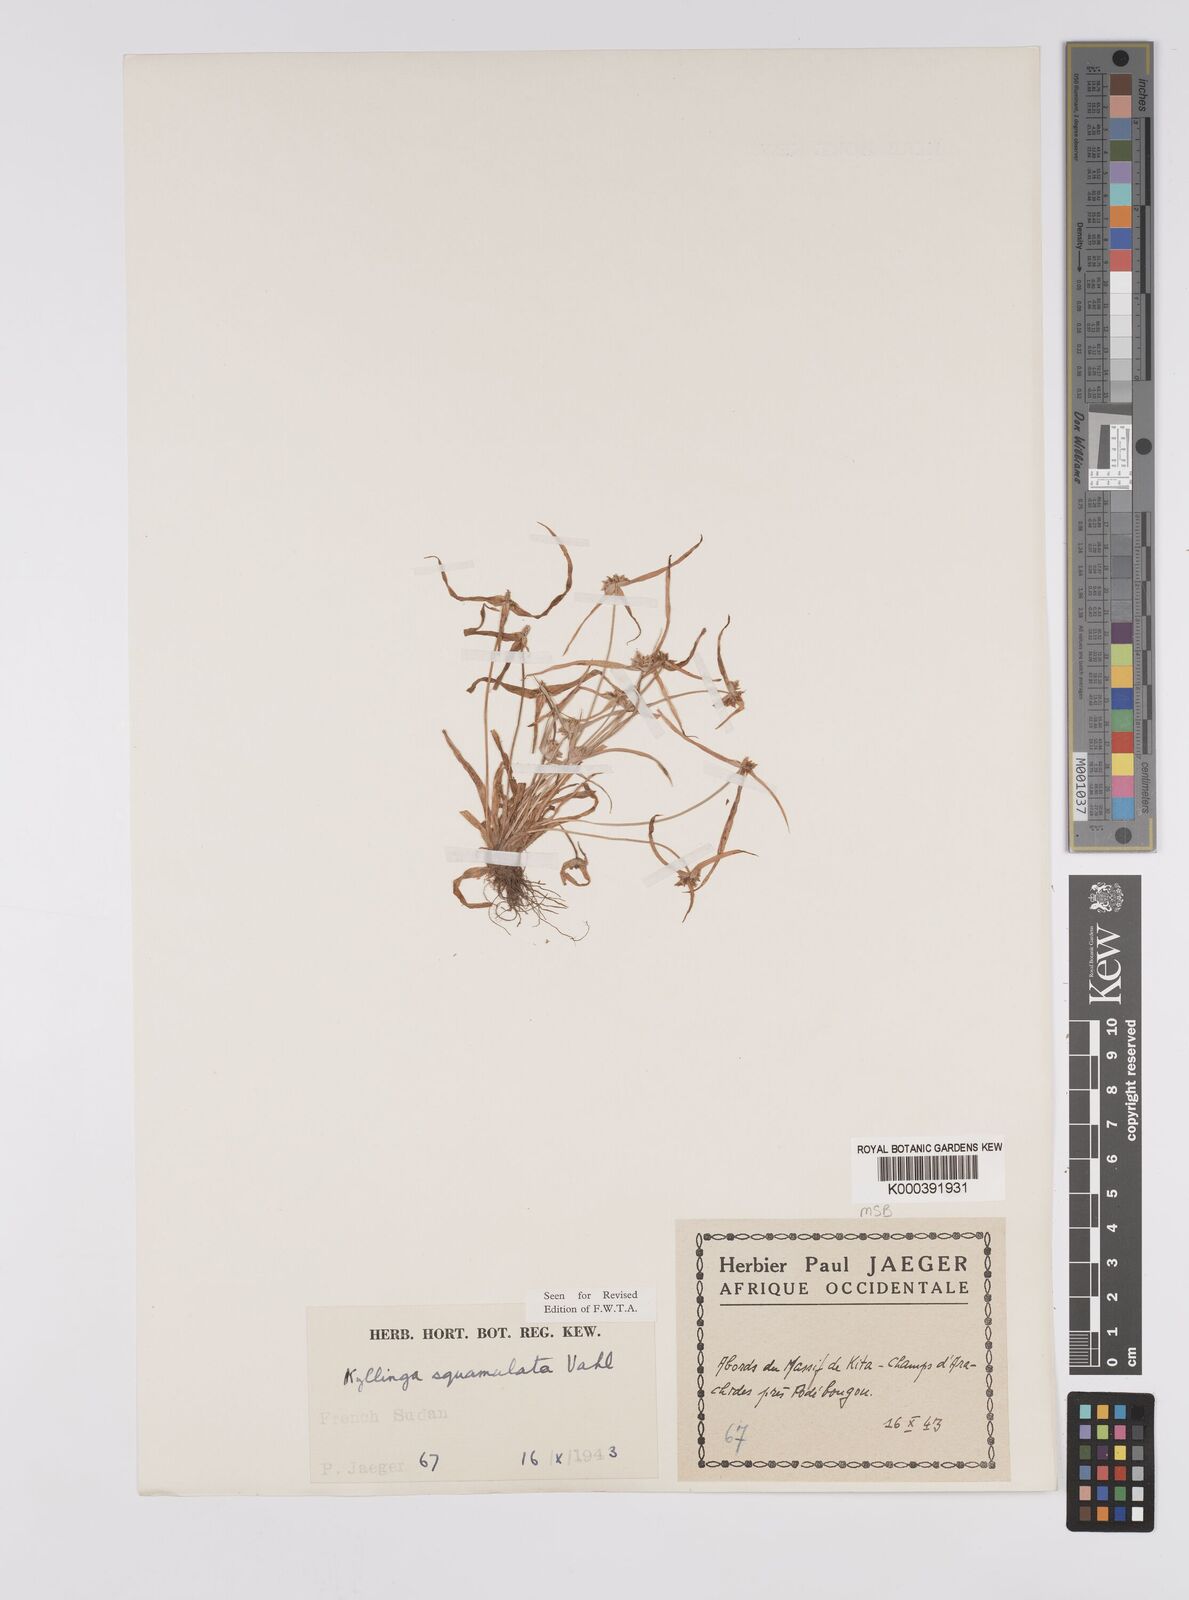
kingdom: Plantae
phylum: Tracheophyta
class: Liliopsida
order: Poales
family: Cyperaceae
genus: Cyperus
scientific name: Cyperus metzii
